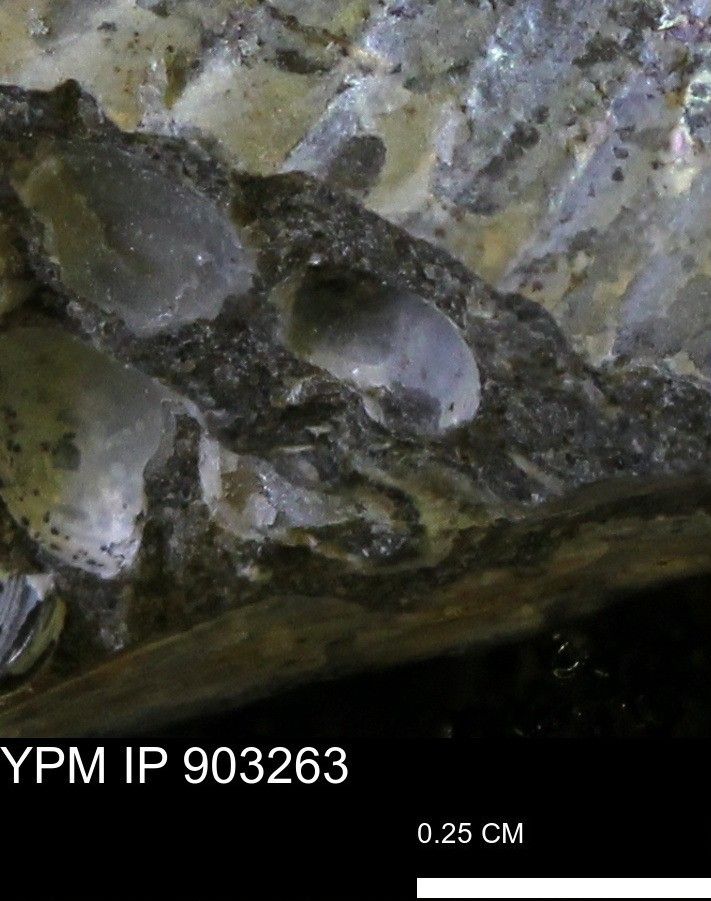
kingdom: Animalia
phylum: Mollusca
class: Bivalvia
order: Myida
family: Corbulidae
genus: Corbulamella
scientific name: Corbulamella
